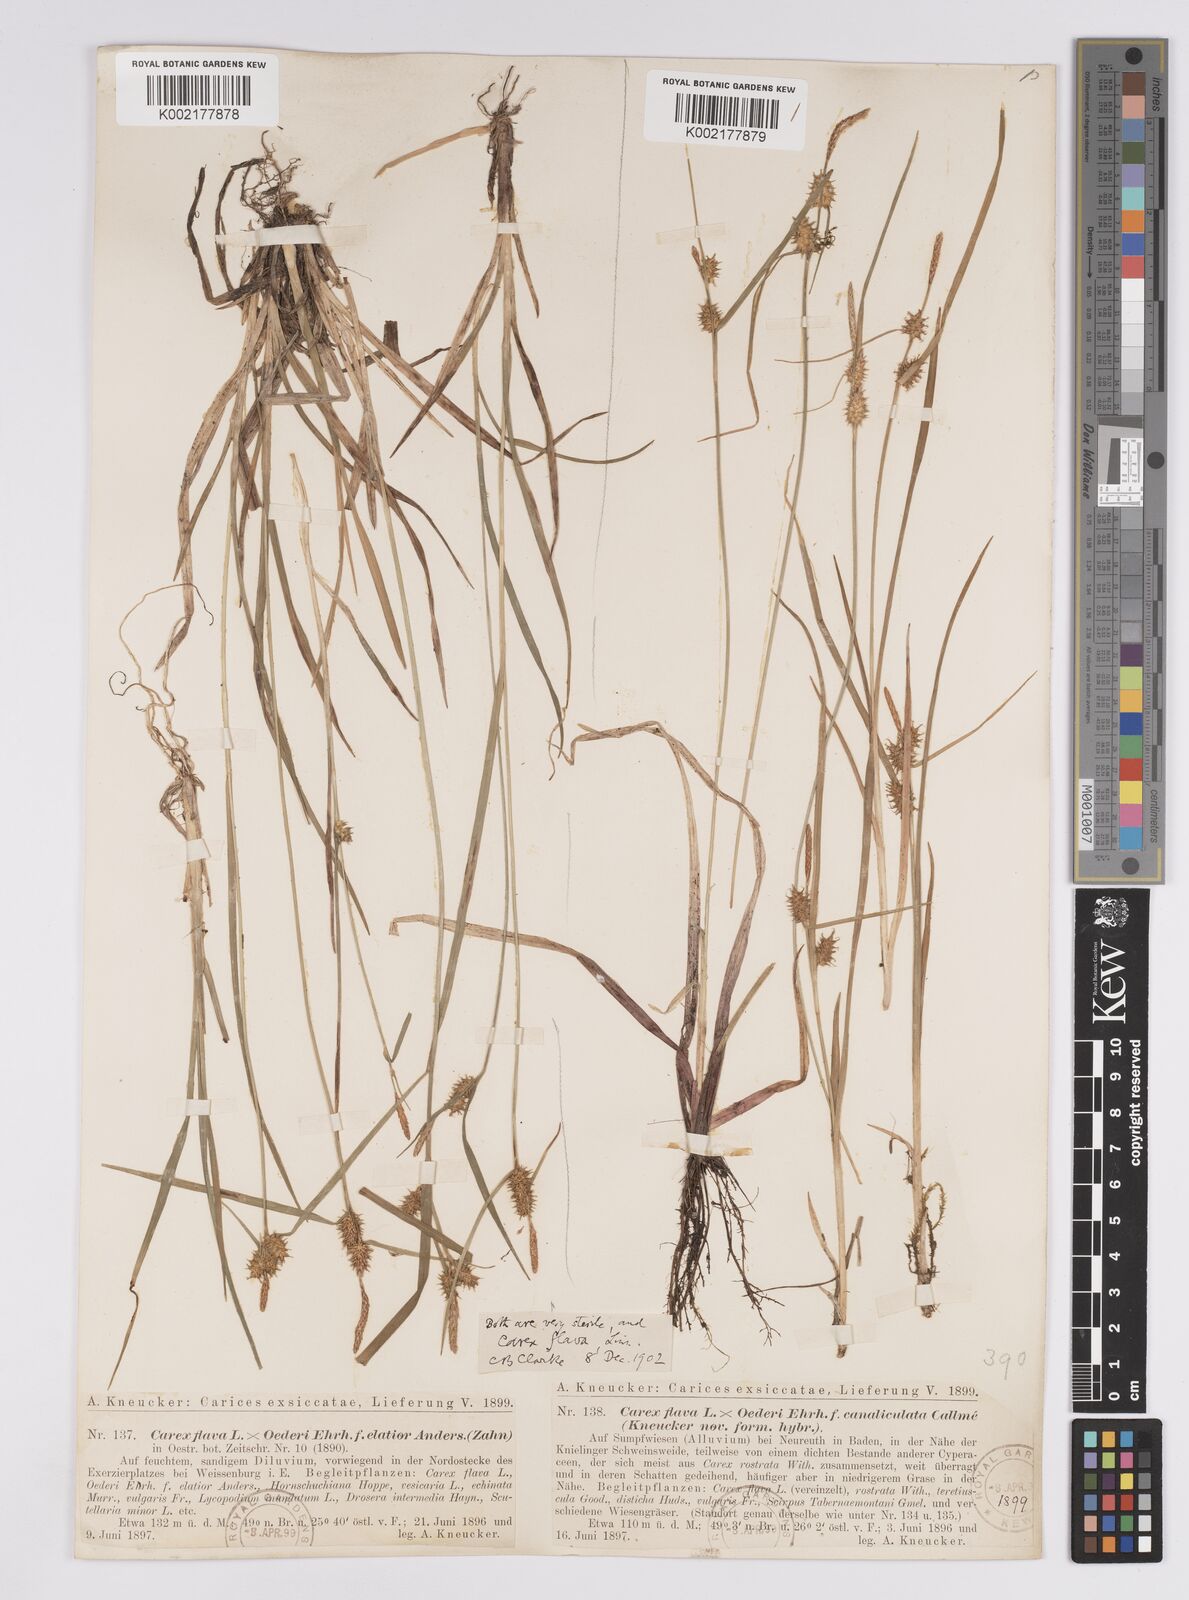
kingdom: Plantae
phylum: Tracheophyta
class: Liliopsida
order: Poales
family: Cyperaceae
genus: Carex
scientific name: Carex flava
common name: Large yellow-sedge
